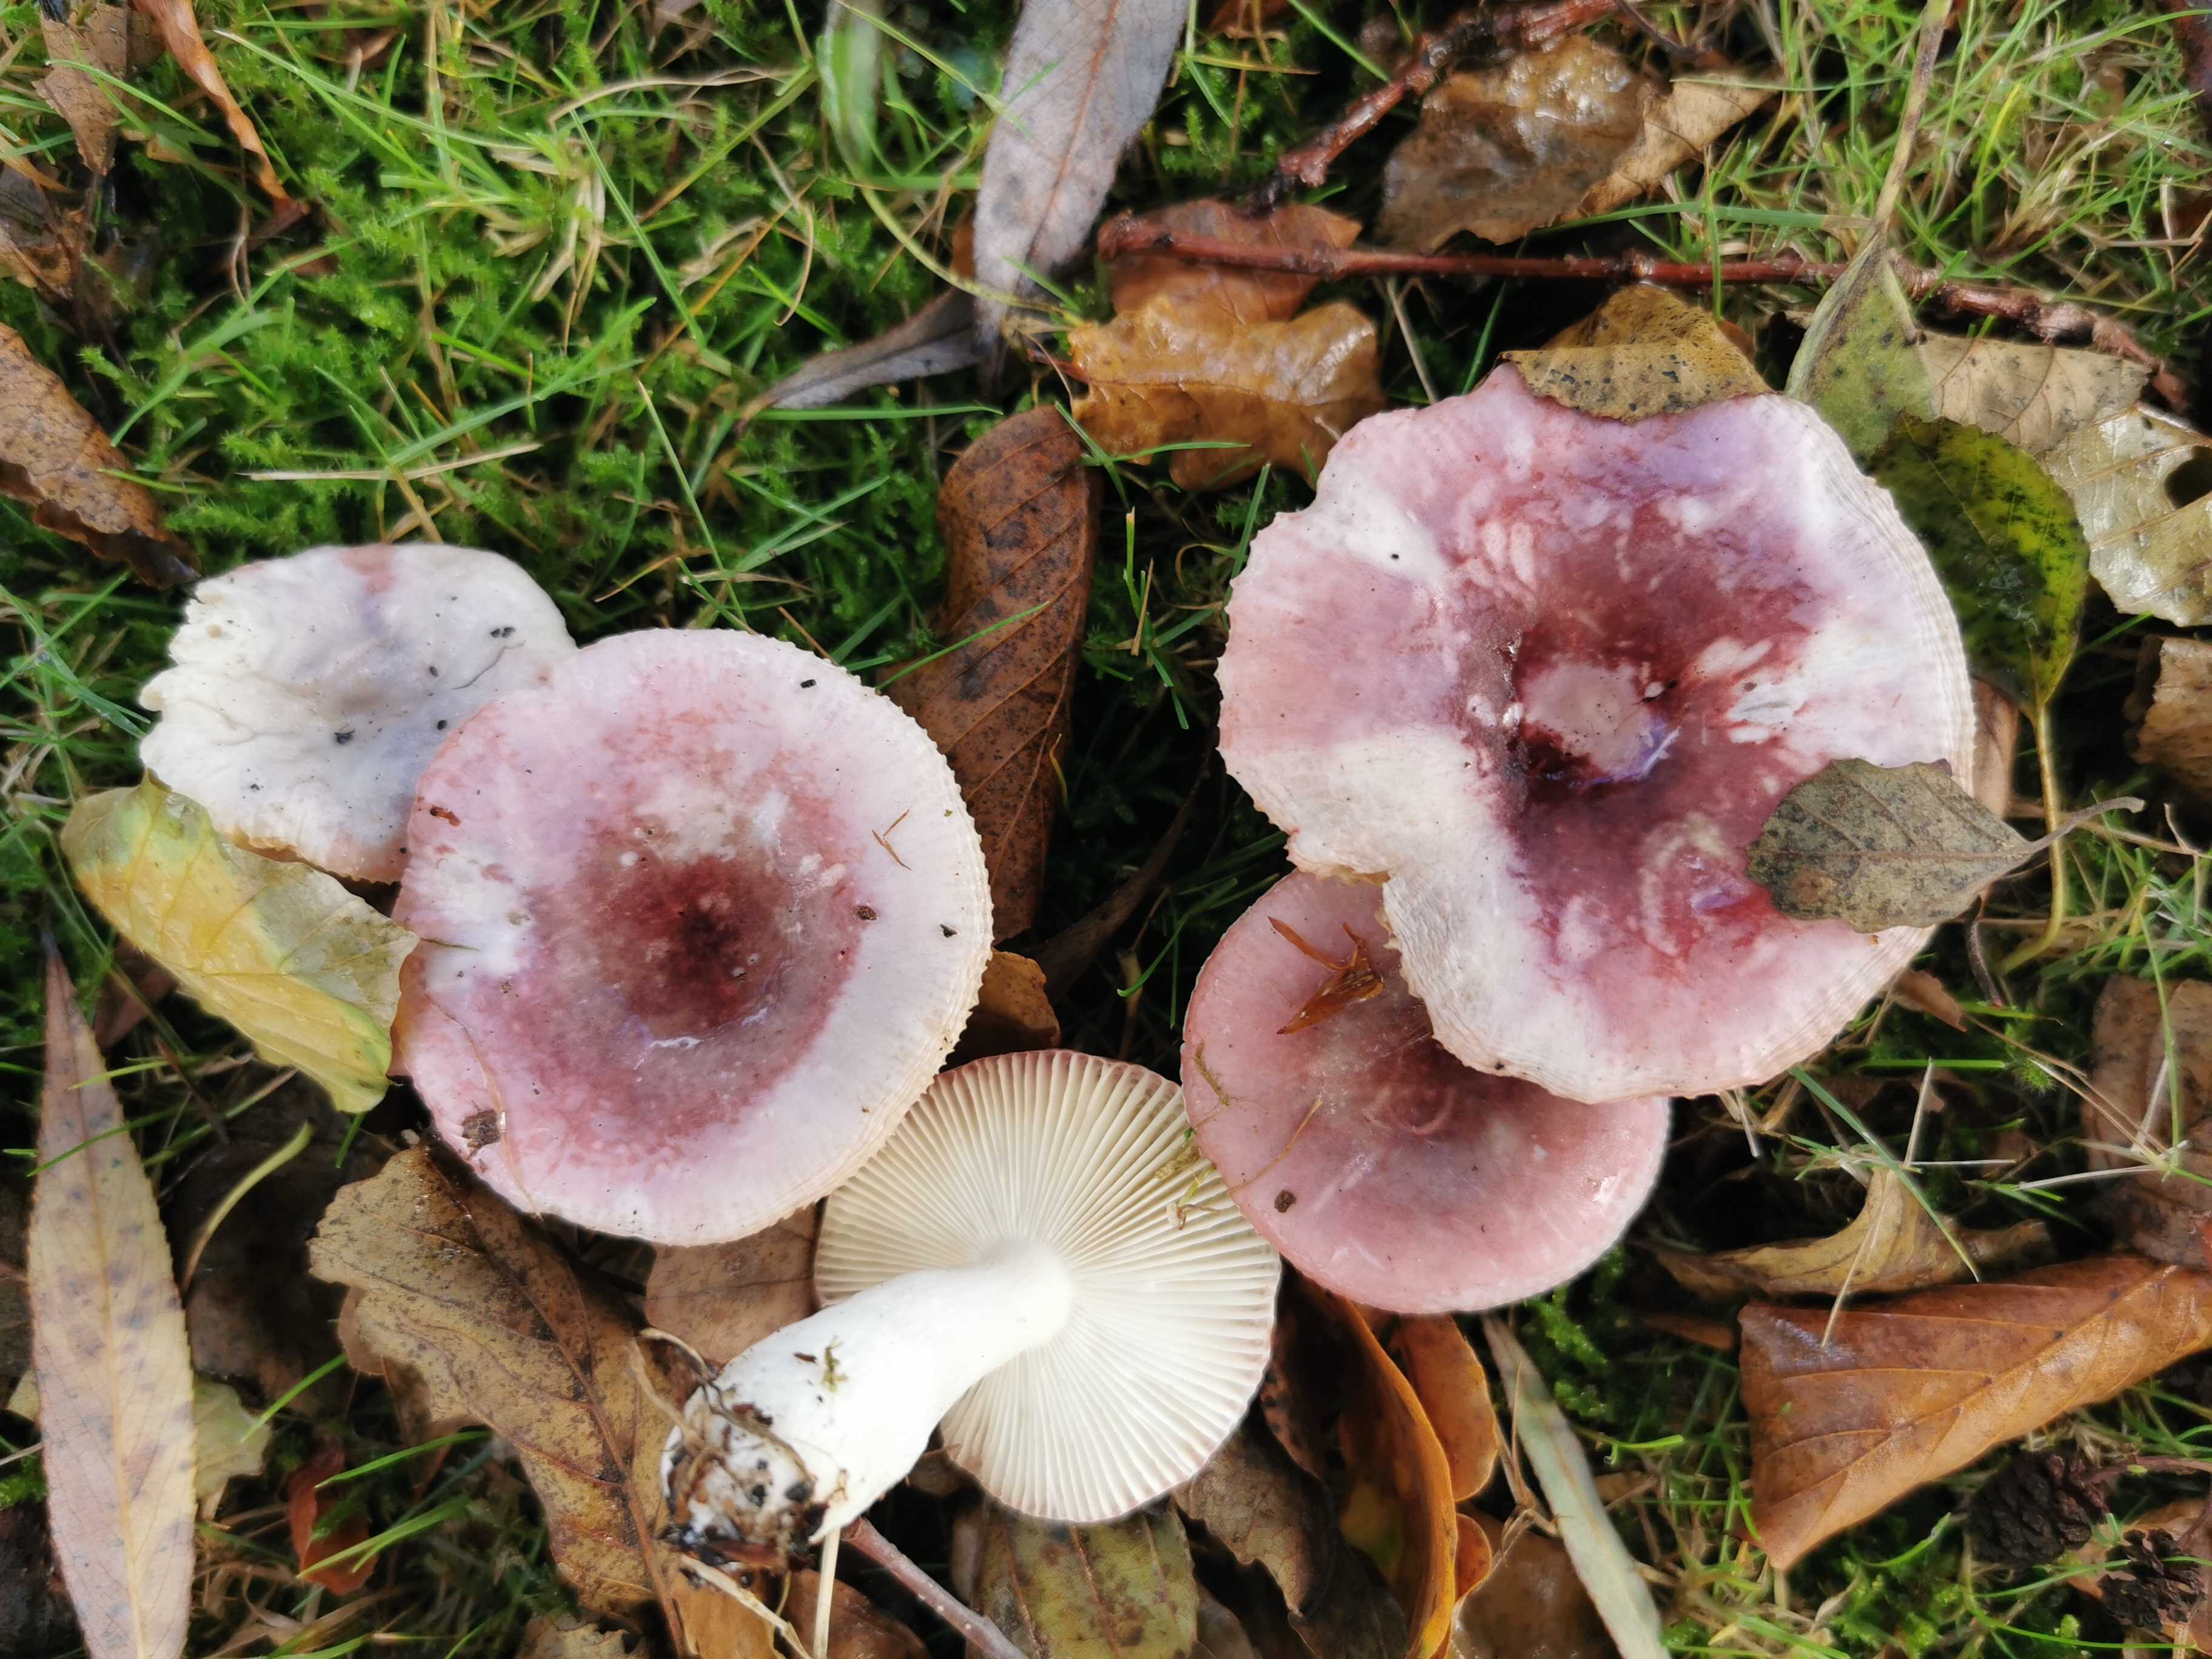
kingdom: Fungi
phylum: Basidiomycota
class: Agaricomycetes
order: Russulales
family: Russulaceae
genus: Russula
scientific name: Russula fragilis
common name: savbladet skørhat
